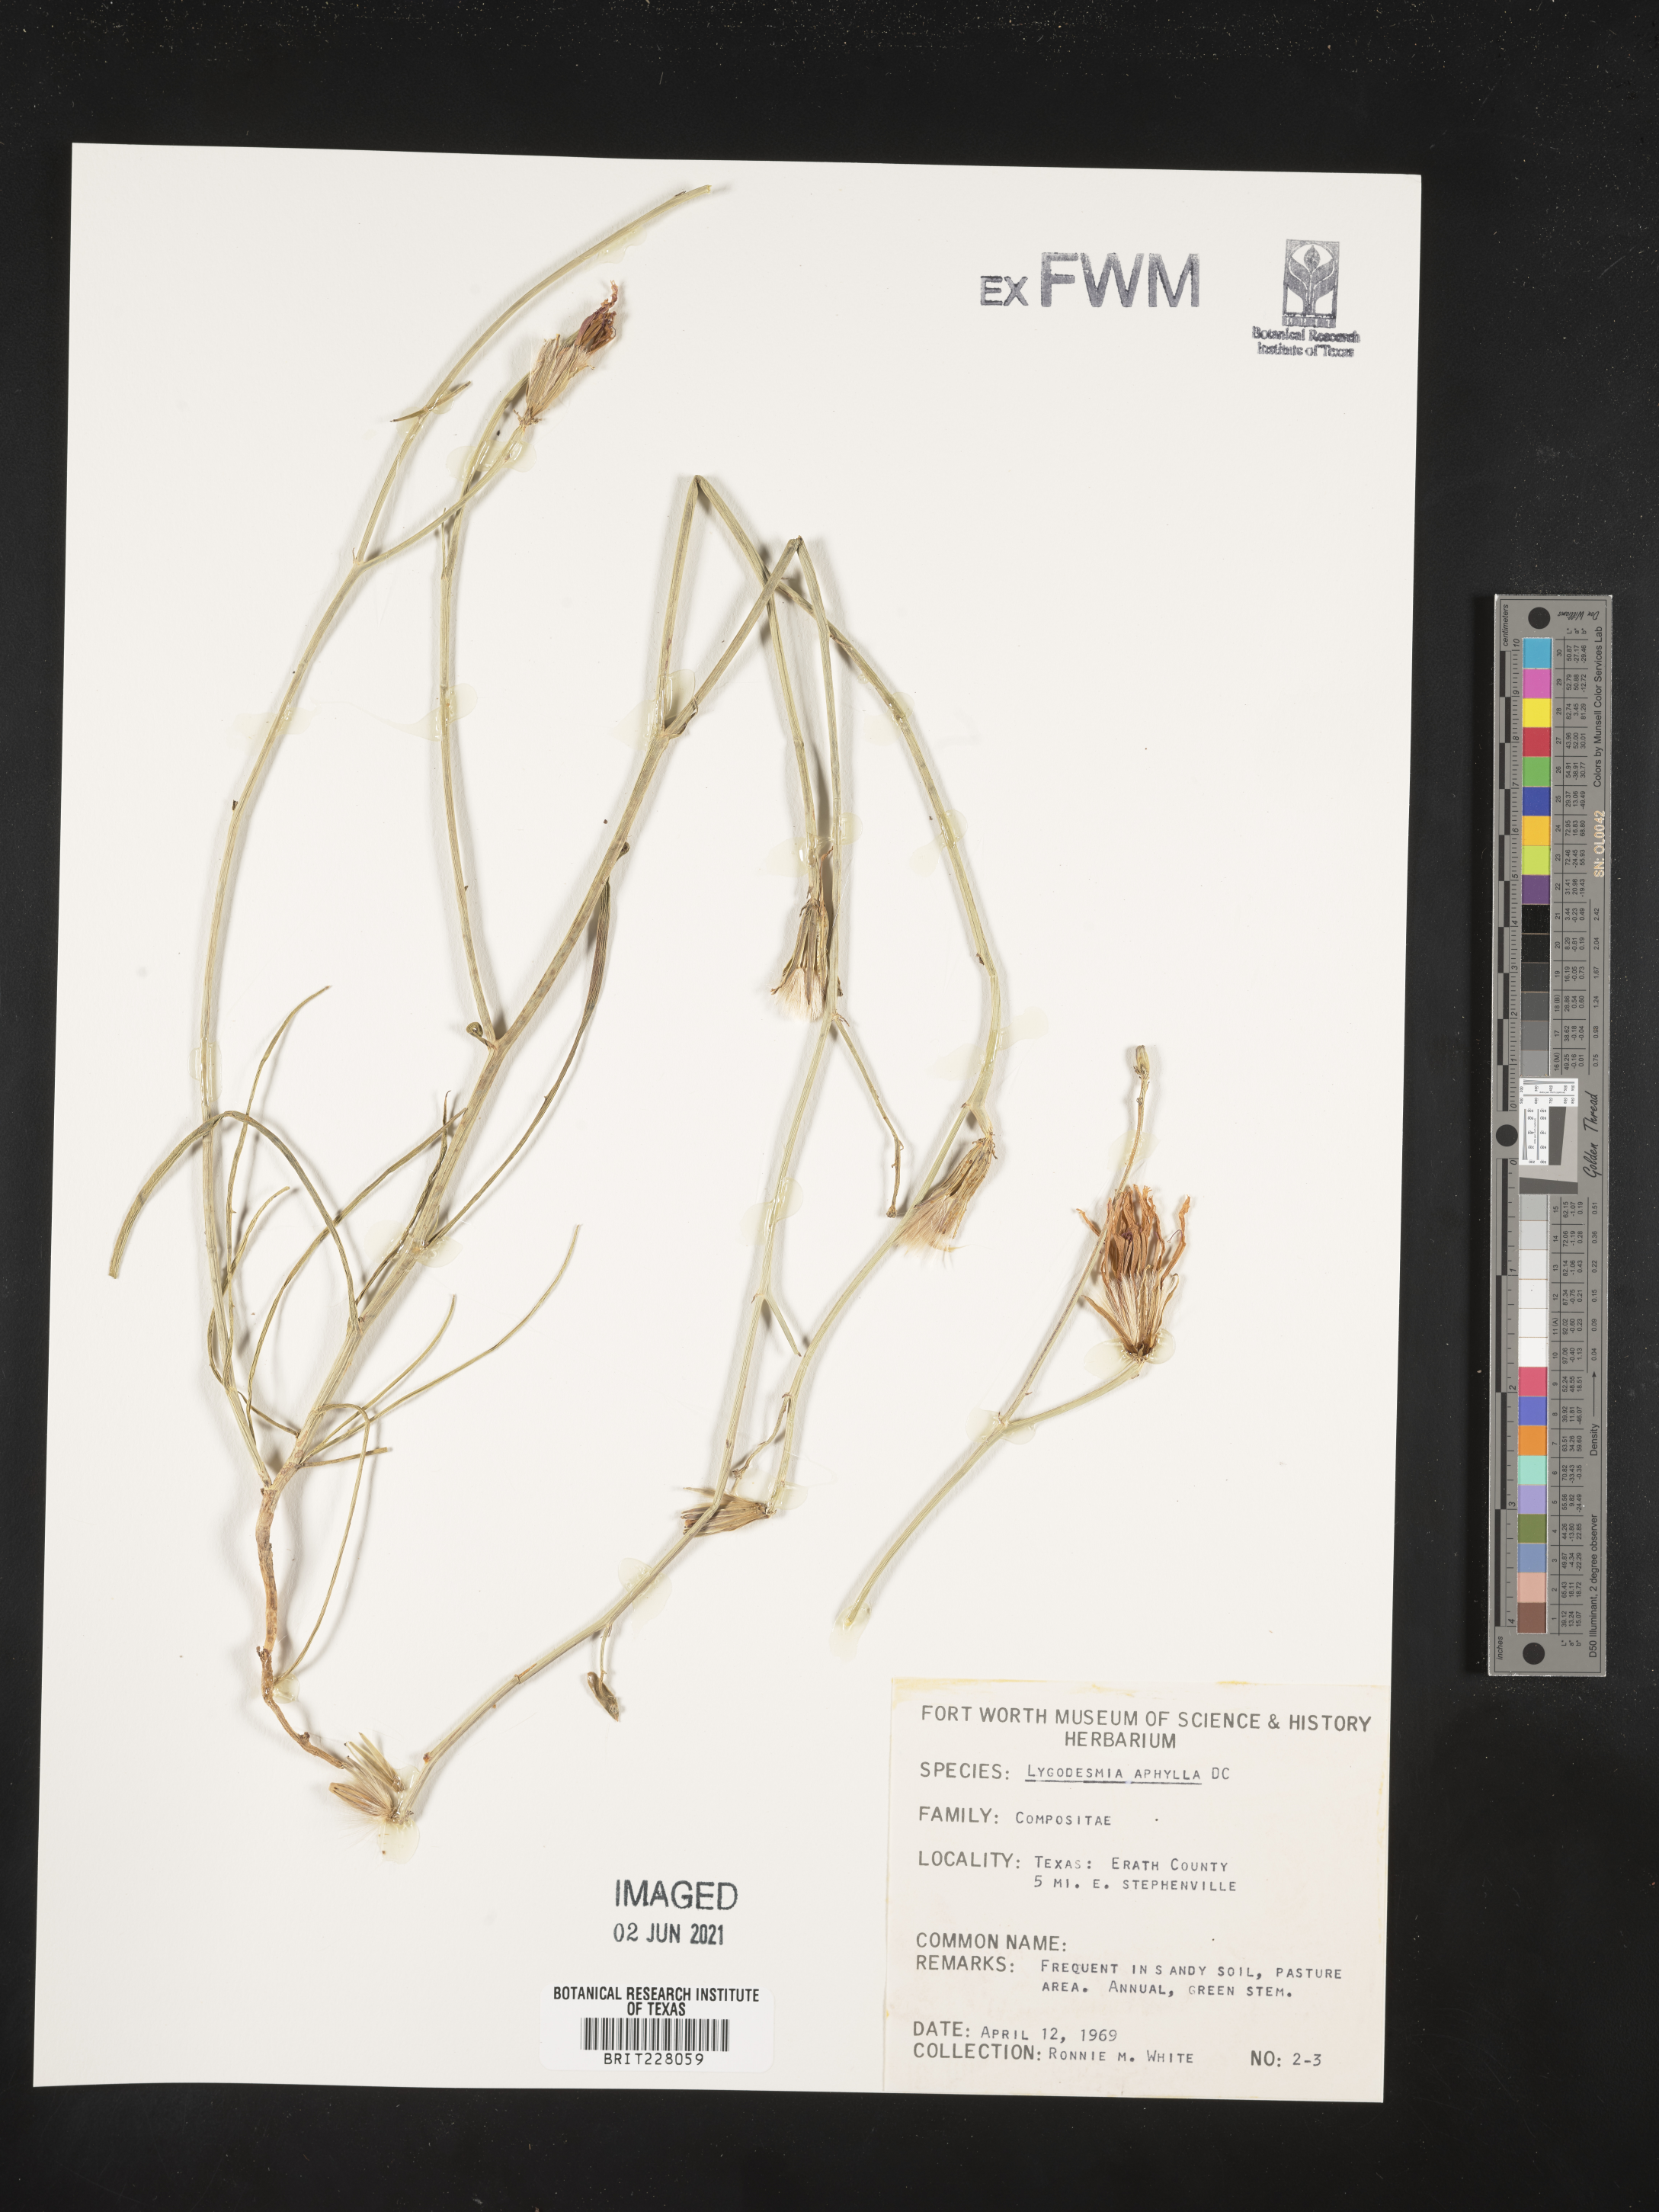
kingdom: Plantae
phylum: Tracheophyta
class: Magnoliopsida
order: Asterales
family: Asteraceae
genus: Lygodesmia
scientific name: Lygodesmia aphylla
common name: Rose-rush
